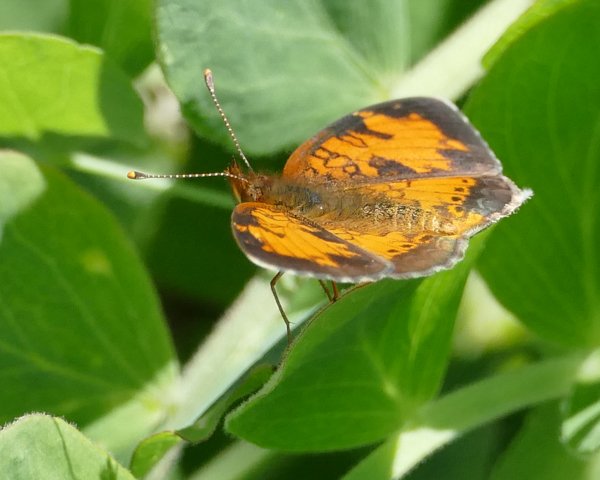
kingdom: Animalia
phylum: Arthropoda
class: Insecta
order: Lepidoptera
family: Nymphalidae
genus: Phyciodes
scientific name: Phyciodes tharos
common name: Northern Crescent
